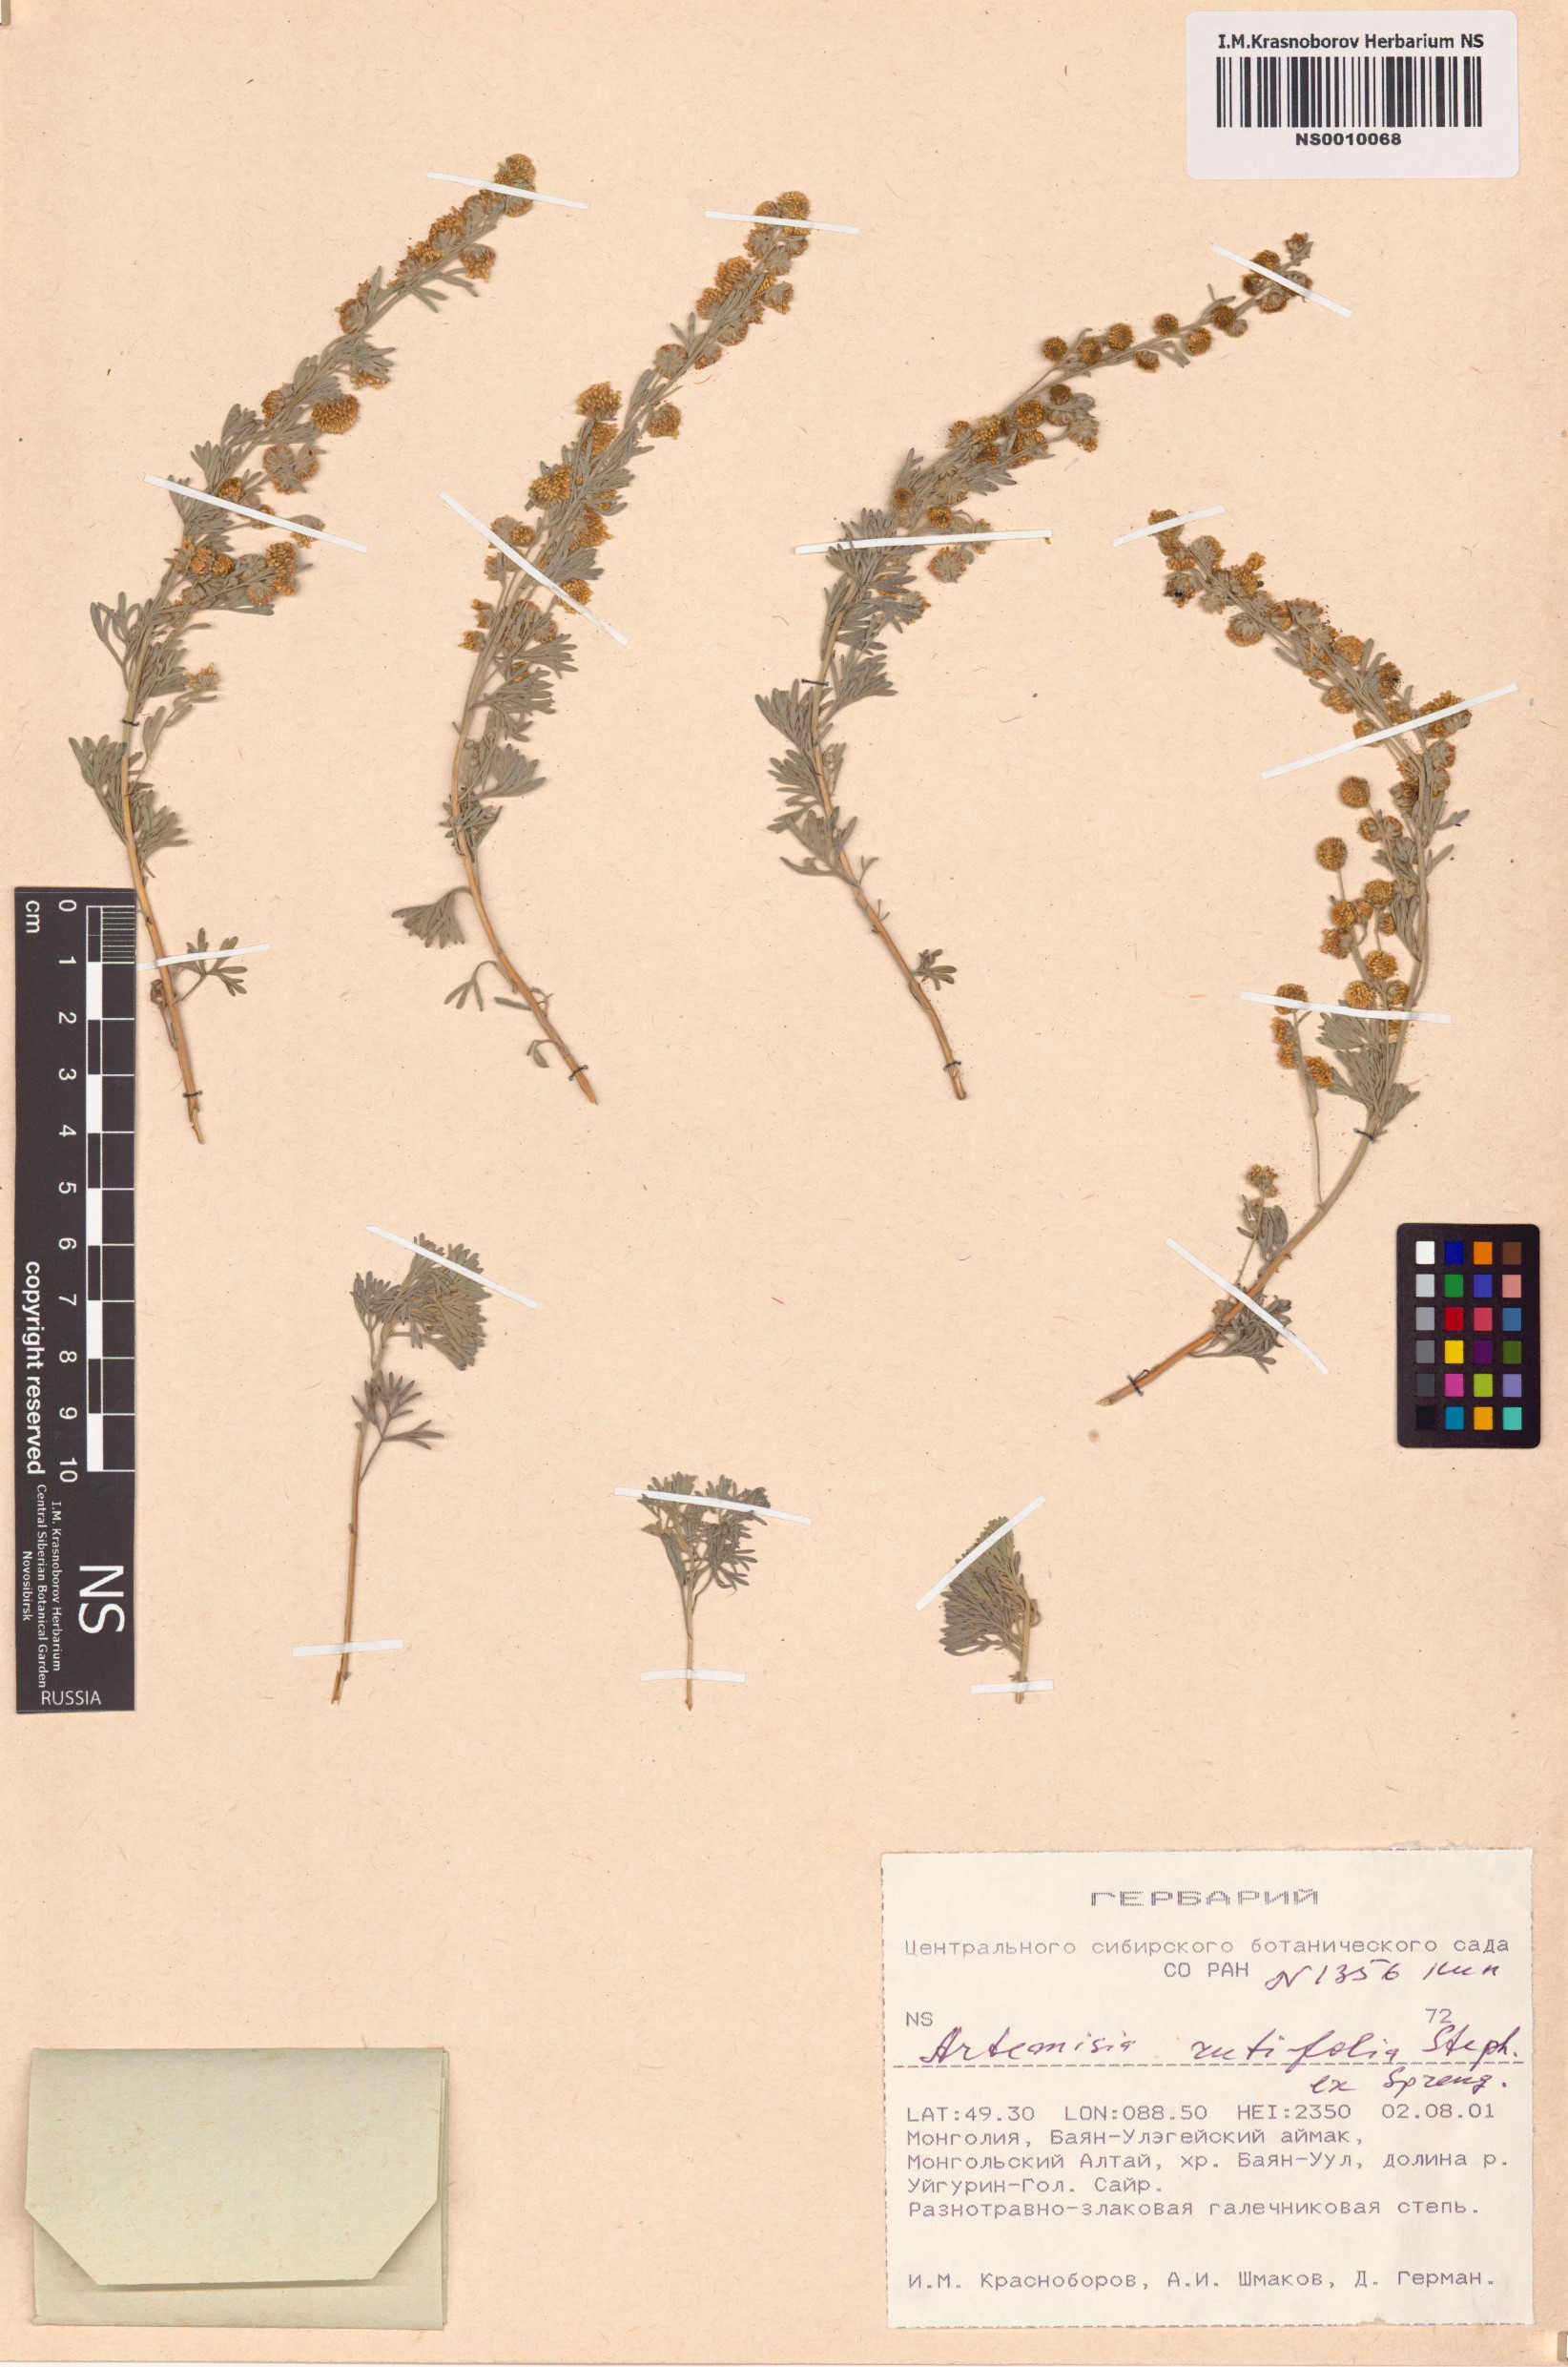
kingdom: Plantae
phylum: Tracheophyta
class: Magnoliopsida
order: Asterales
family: Asteraceae
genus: Artemisia
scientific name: Artemisia rutifolia
